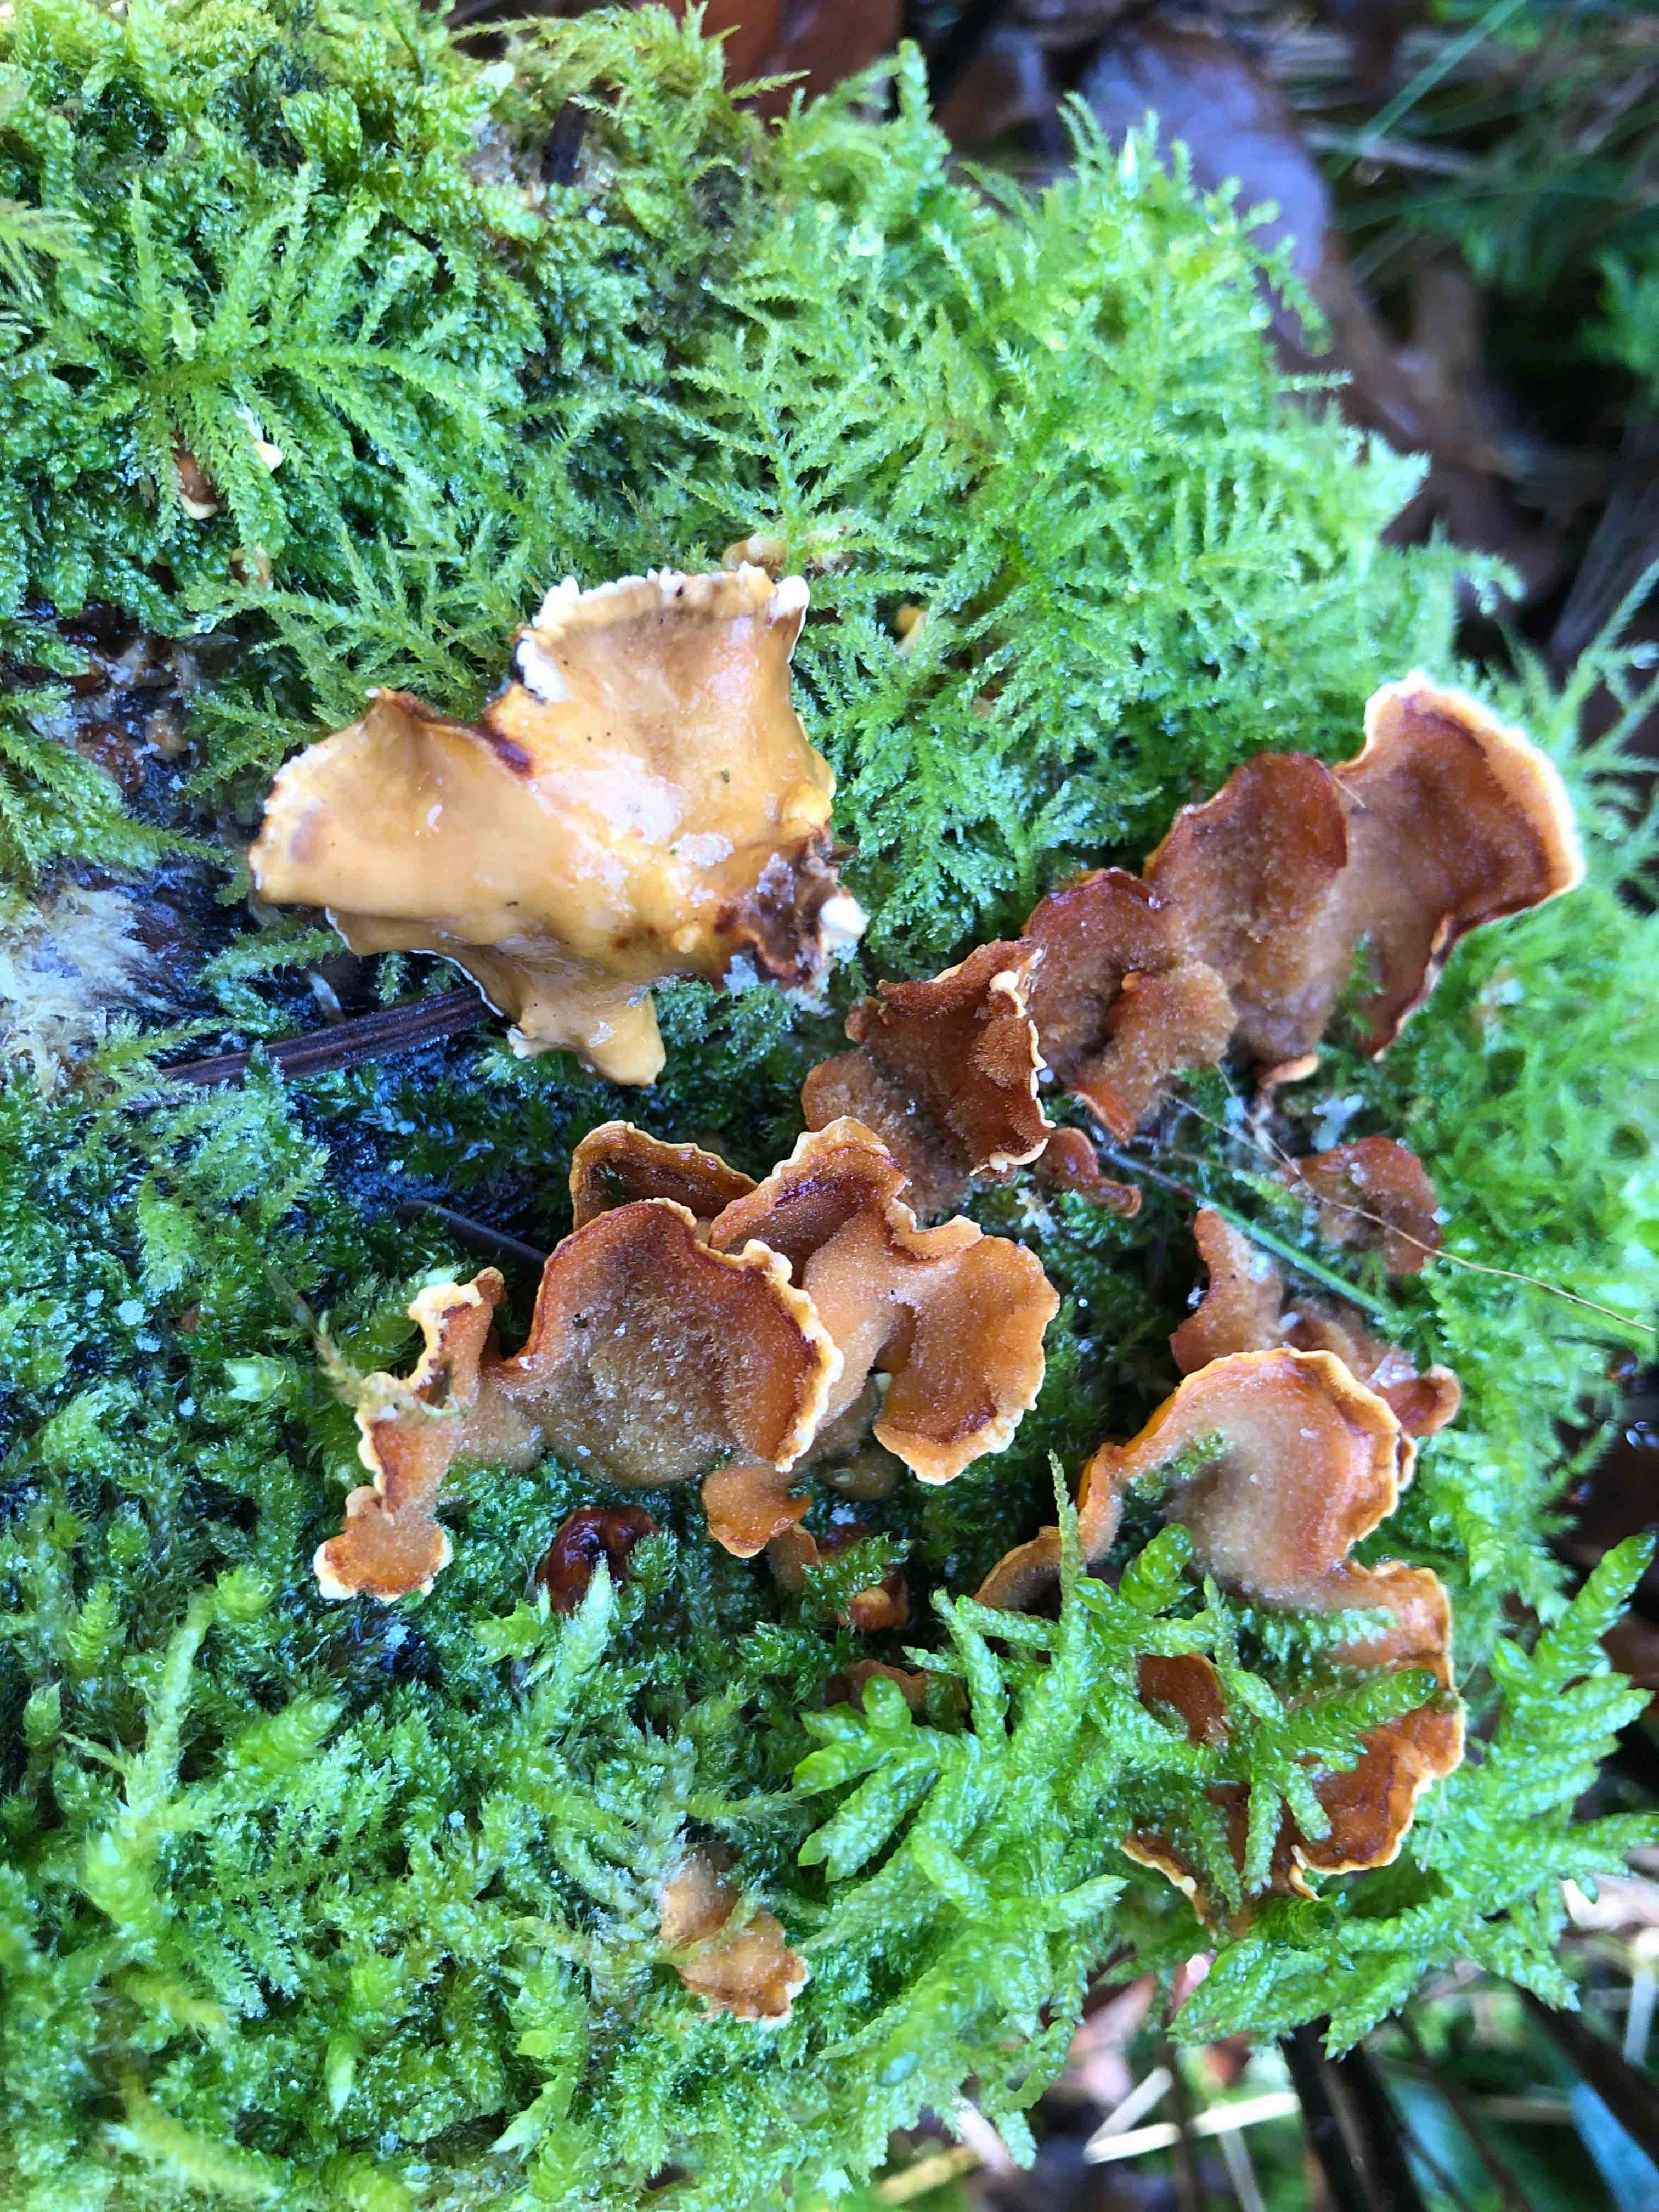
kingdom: Fungi
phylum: Basidiomycota
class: Agaricomycetes
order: Russulales
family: Stereaceae
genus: Stereum
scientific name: Stereum hirsutum
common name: håret lædersvamp
